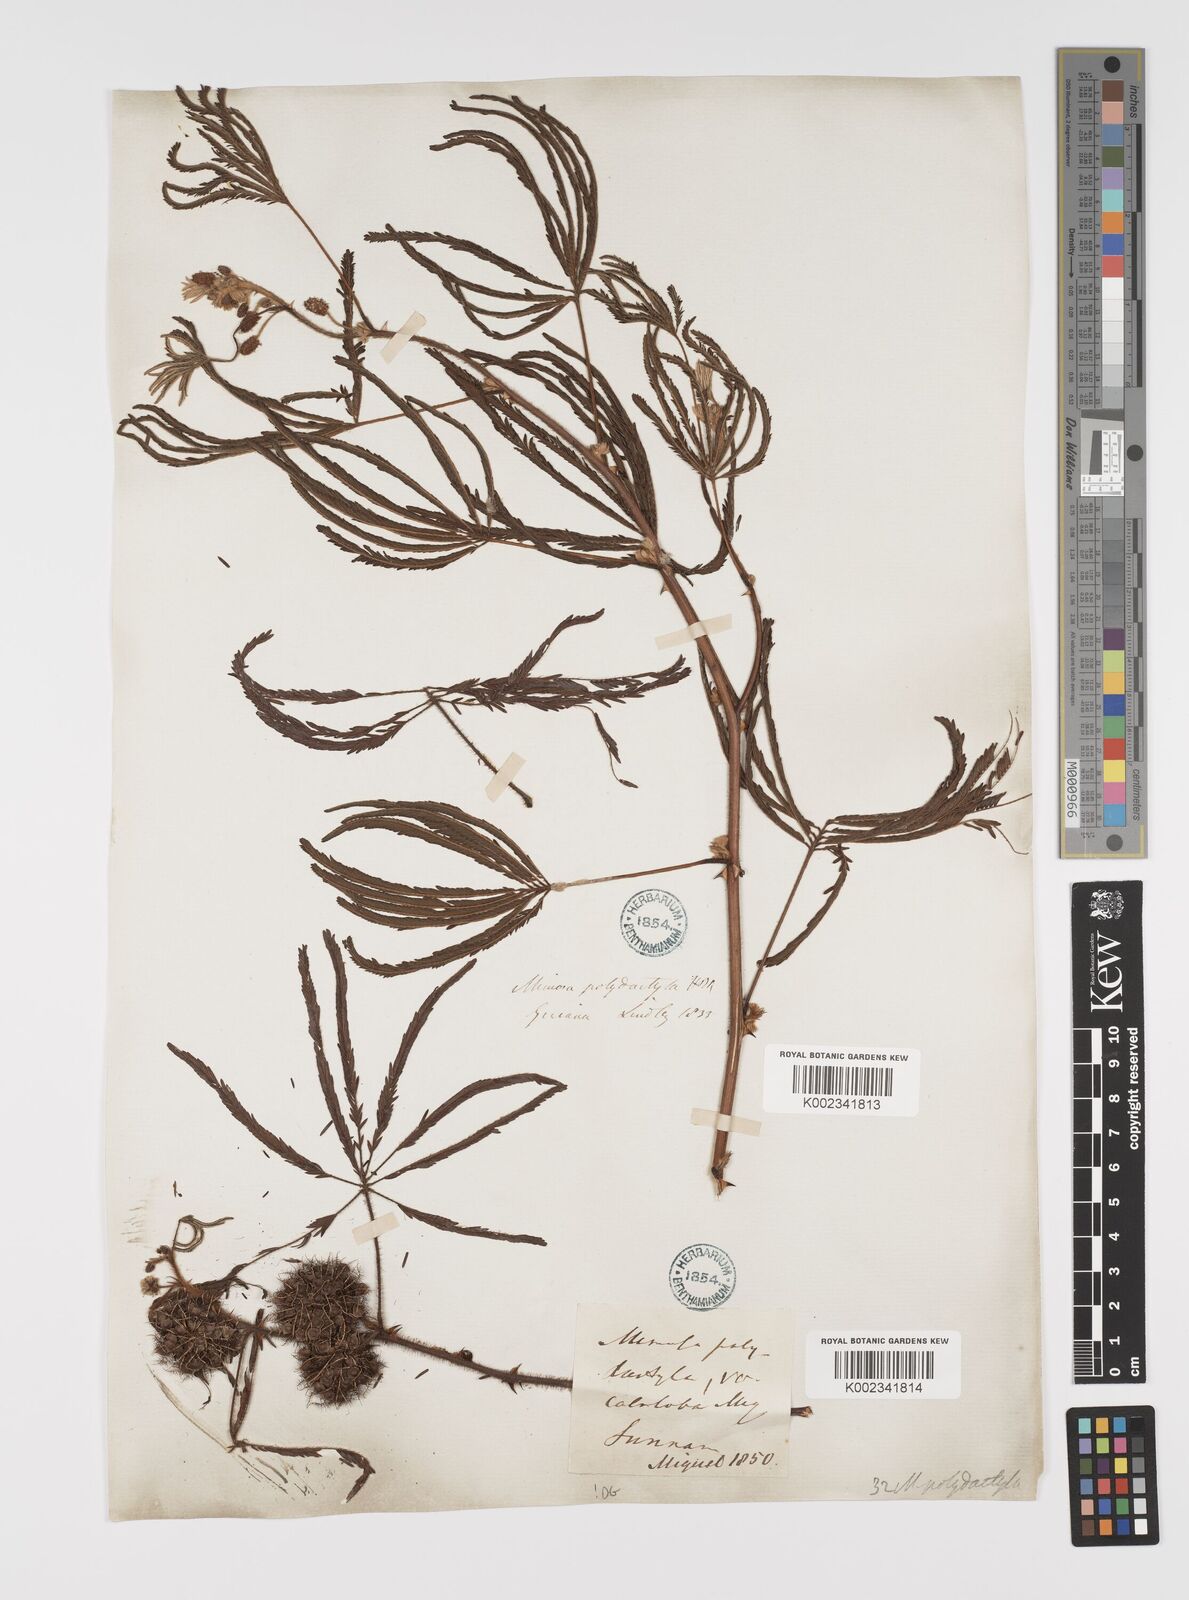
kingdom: Plantae
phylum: Tracheophyta
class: Magnoliopsida
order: Fabales
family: Fabaceae
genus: Mimosa
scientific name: Mimosa polydactyla
